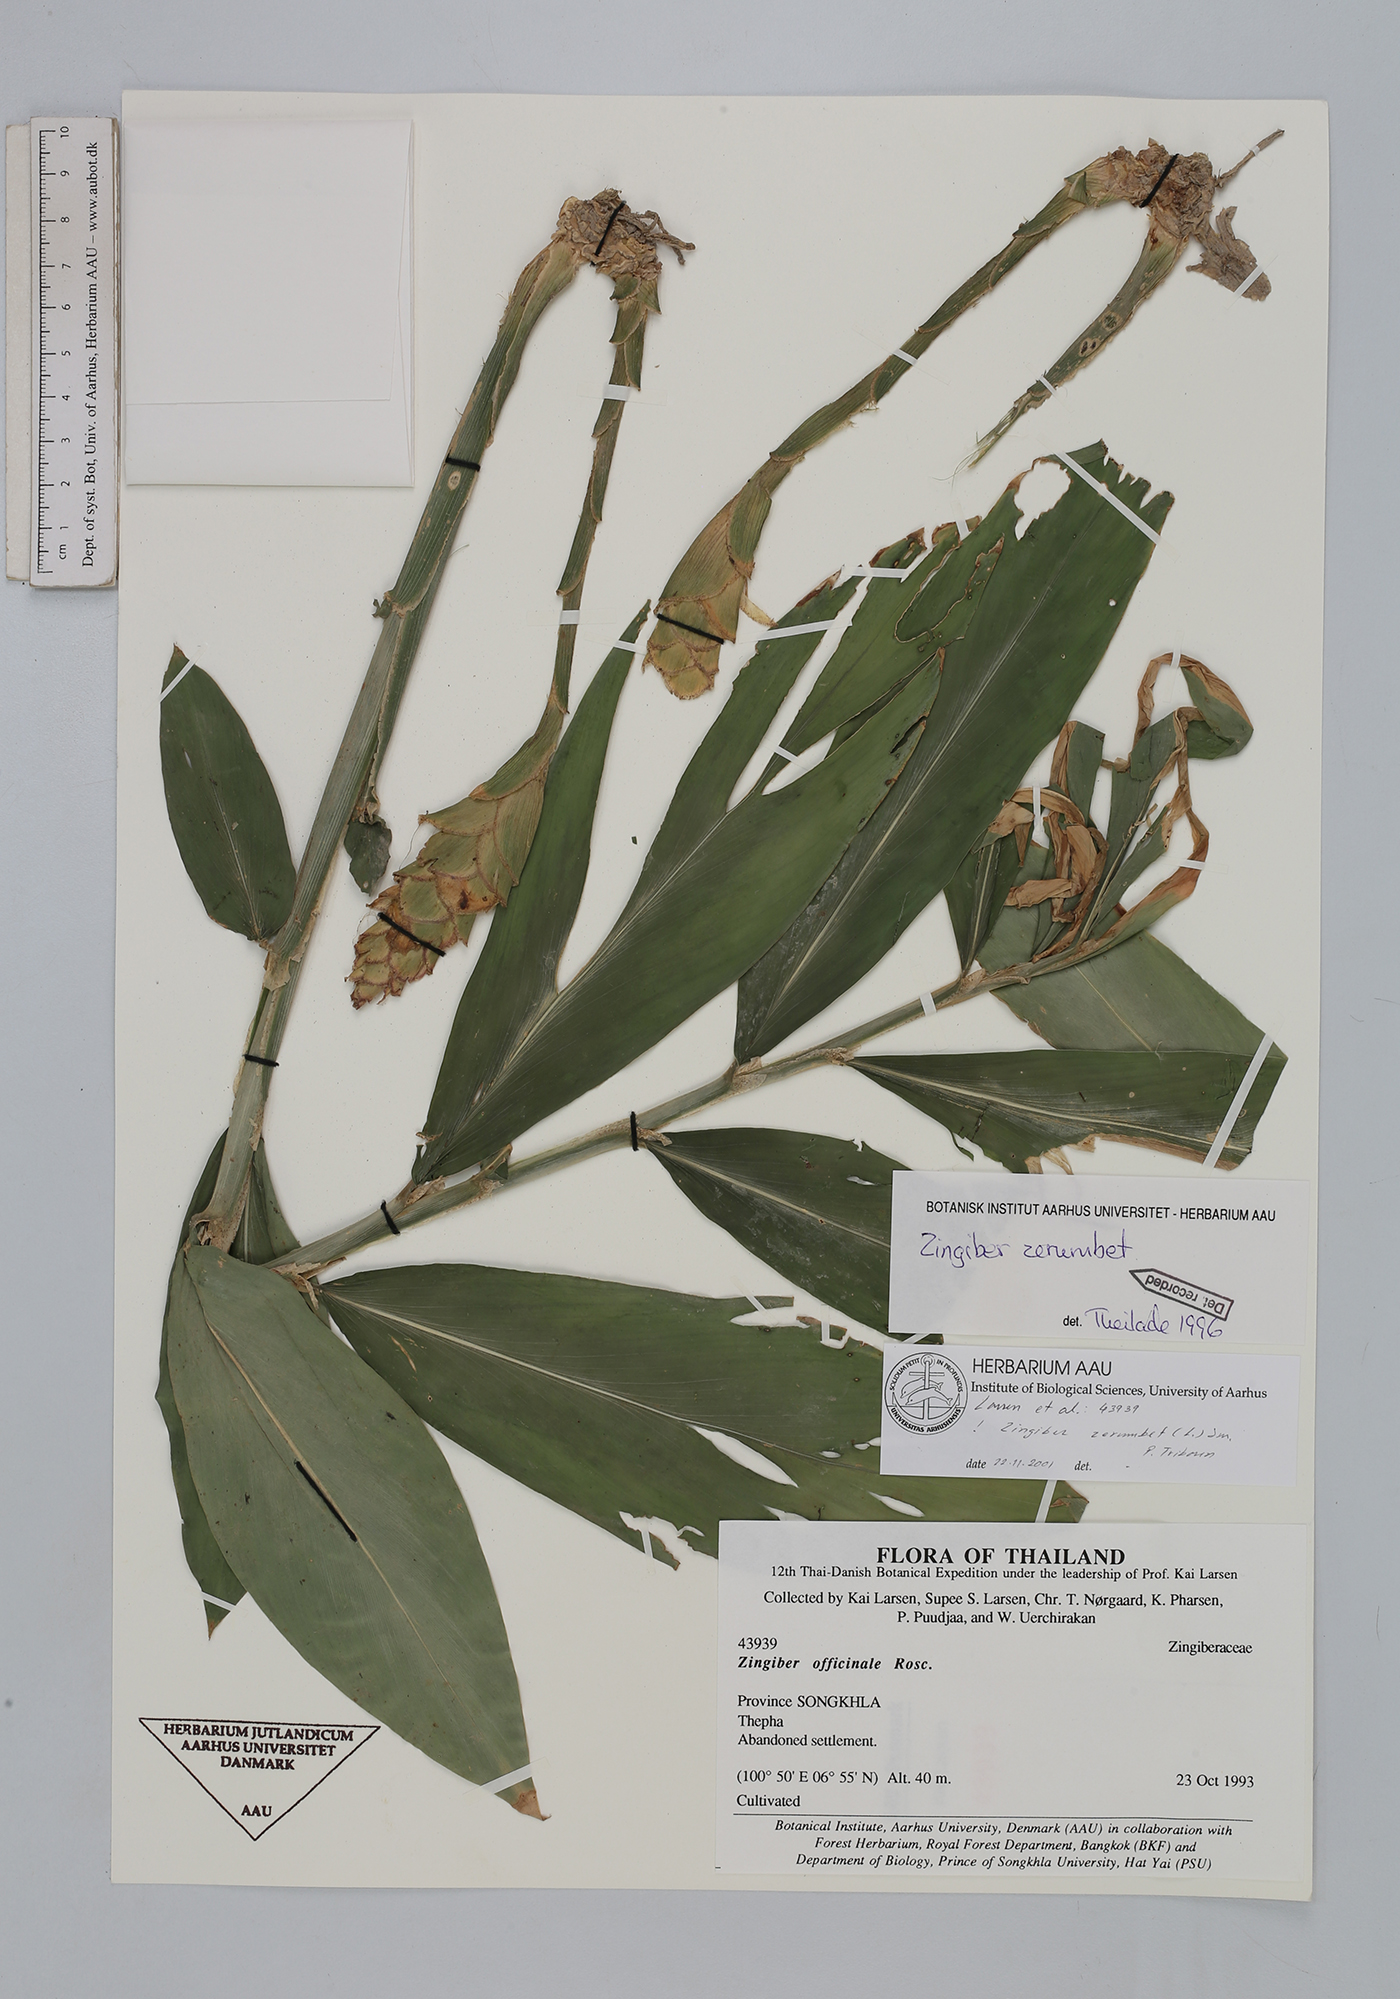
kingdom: Plantae
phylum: Tracheophyta
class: Liliopsida
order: Zingiberales
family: Zingiberaceae
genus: Zingiber
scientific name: Zingiber zerumbet
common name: Bitter ginger
